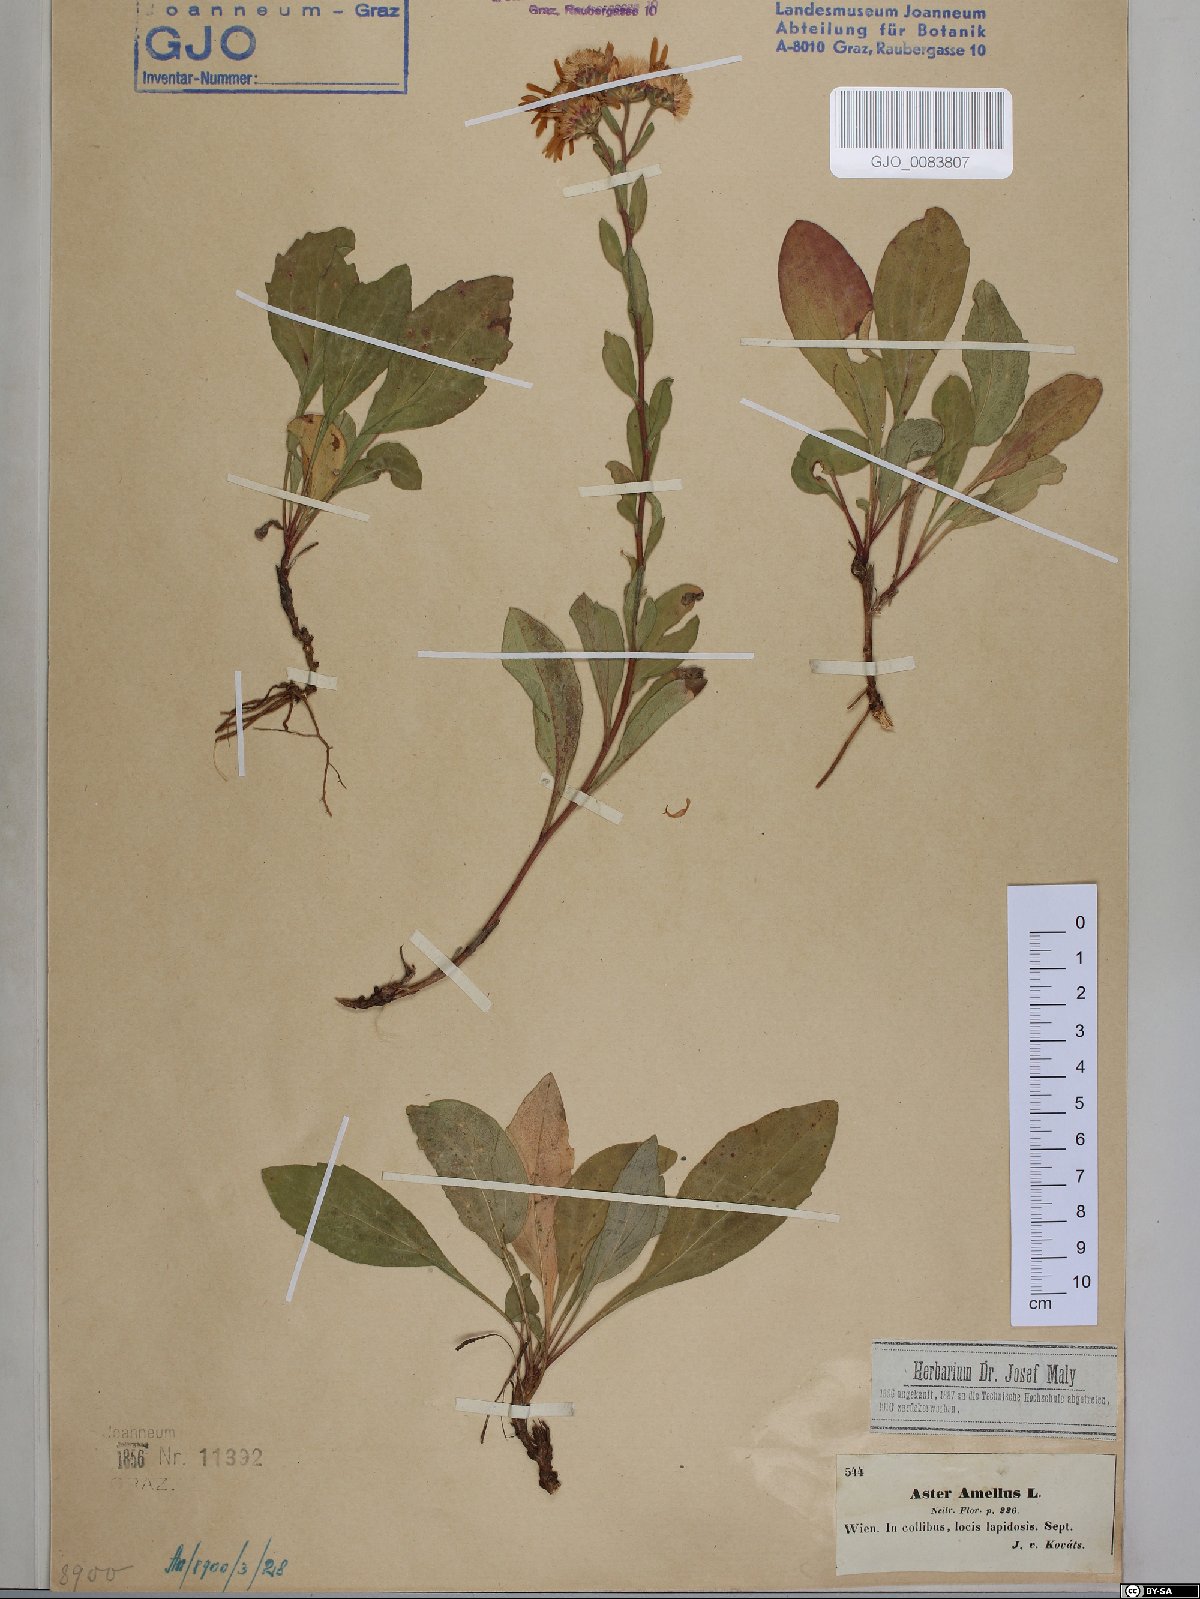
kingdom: Plantae
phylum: Tracheophyta
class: Magnoliopsida
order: Asterales
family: Asteraceae
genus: Aster
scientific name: Aster amellus
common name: European michaelmas daisy
